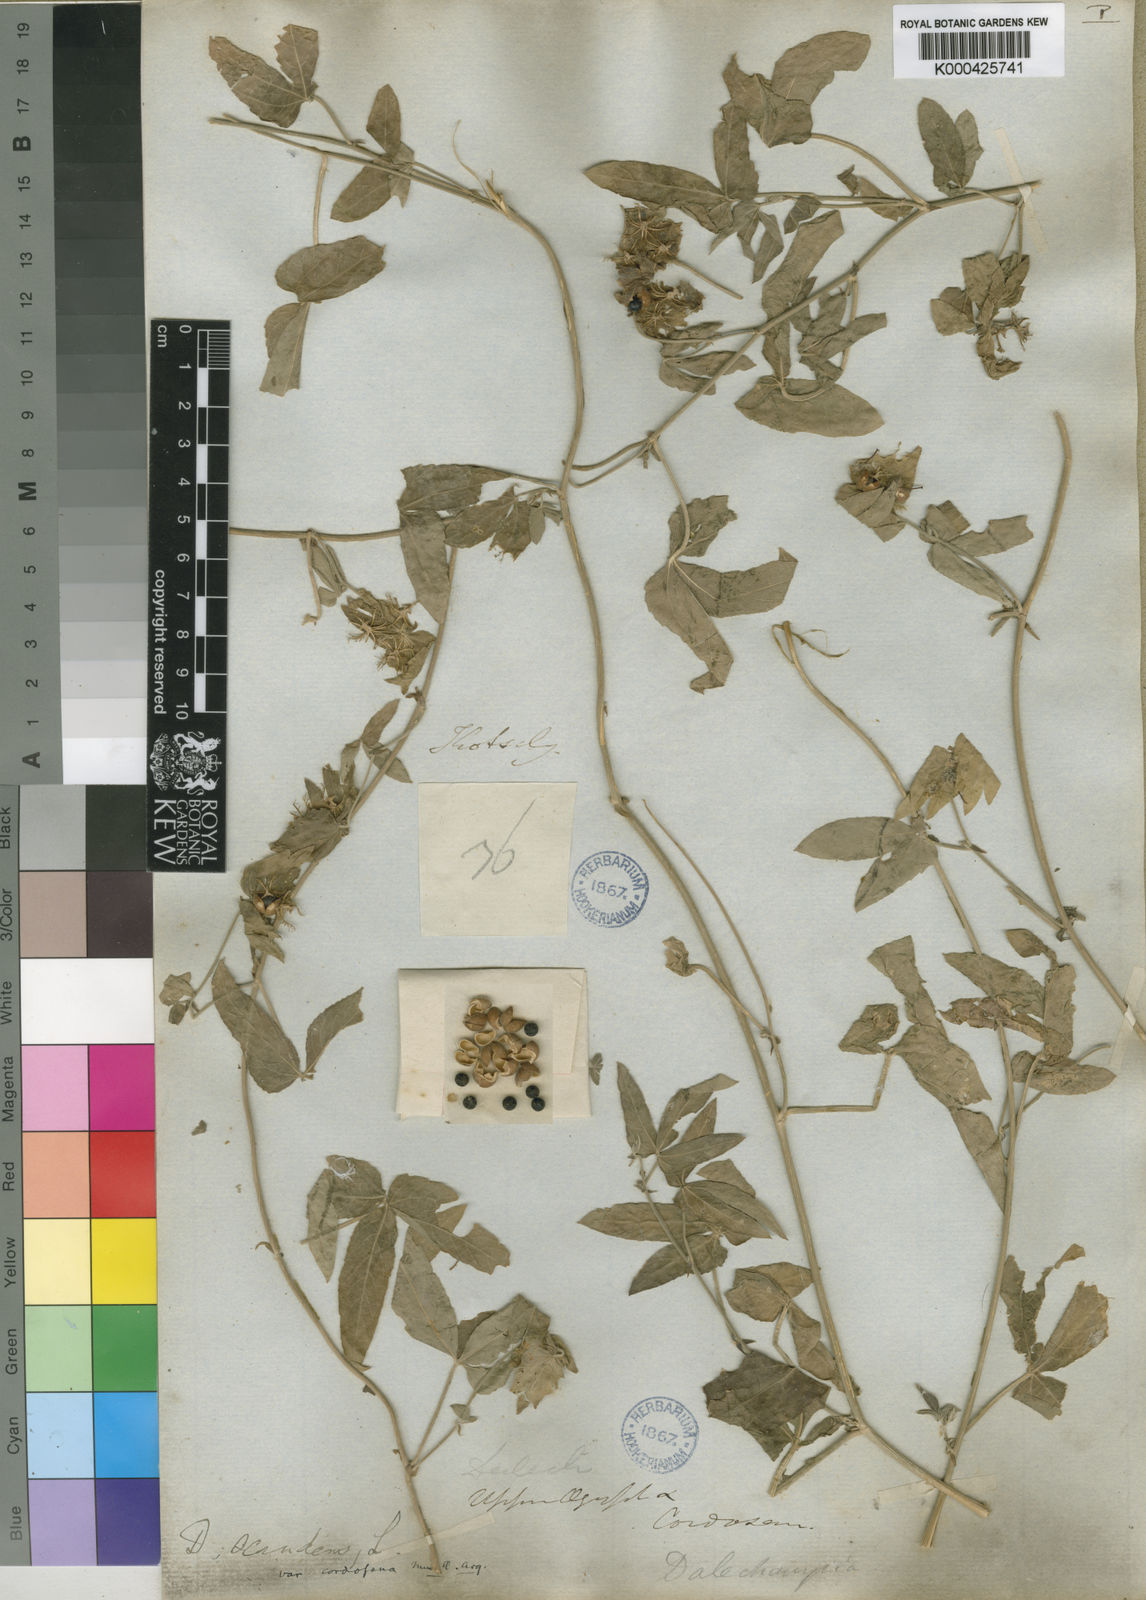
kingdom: Plantae
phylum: Tracheophyta
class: Magnoliopsida
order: Malpighiales
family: Euphorbiaceae
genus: Dalechampia
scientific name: Dalechampia scandens
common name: Spurgecreeper
